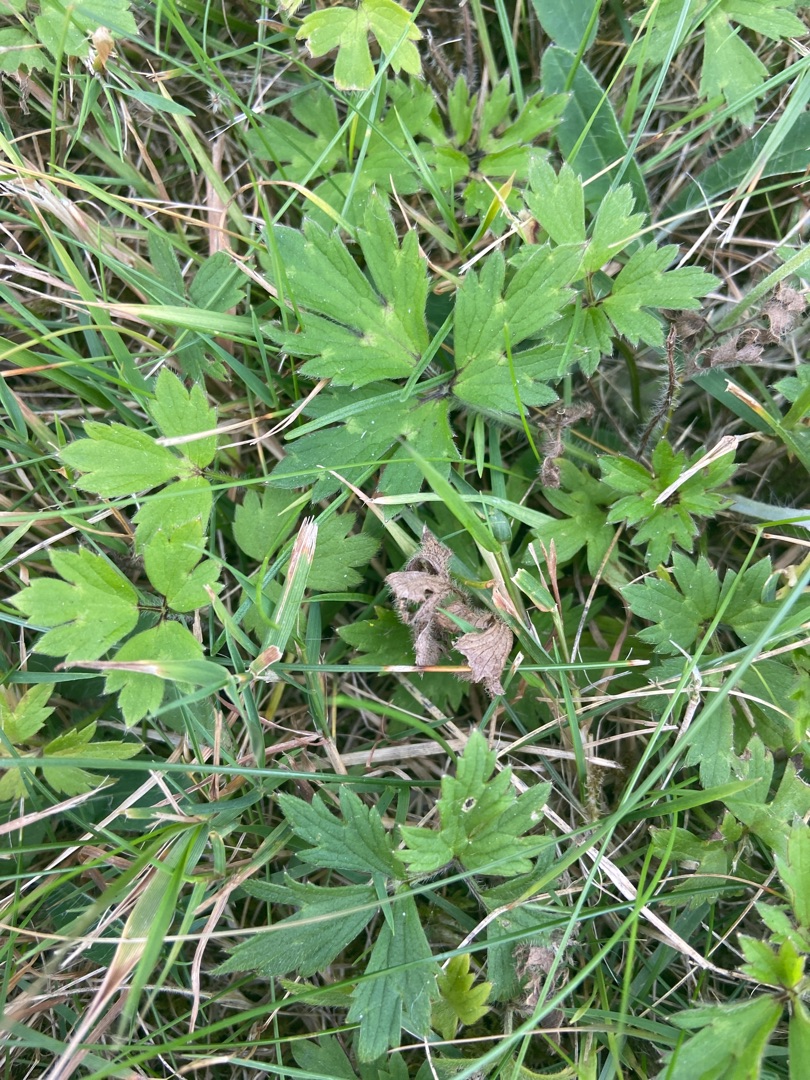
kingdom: Plantae
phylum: Tracheophyta
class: Magnoliopsida
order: Ranunculales
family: Ranunculaceae
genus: Ranunculus
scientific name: Ranunculus repens
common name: Lav ranunkel
